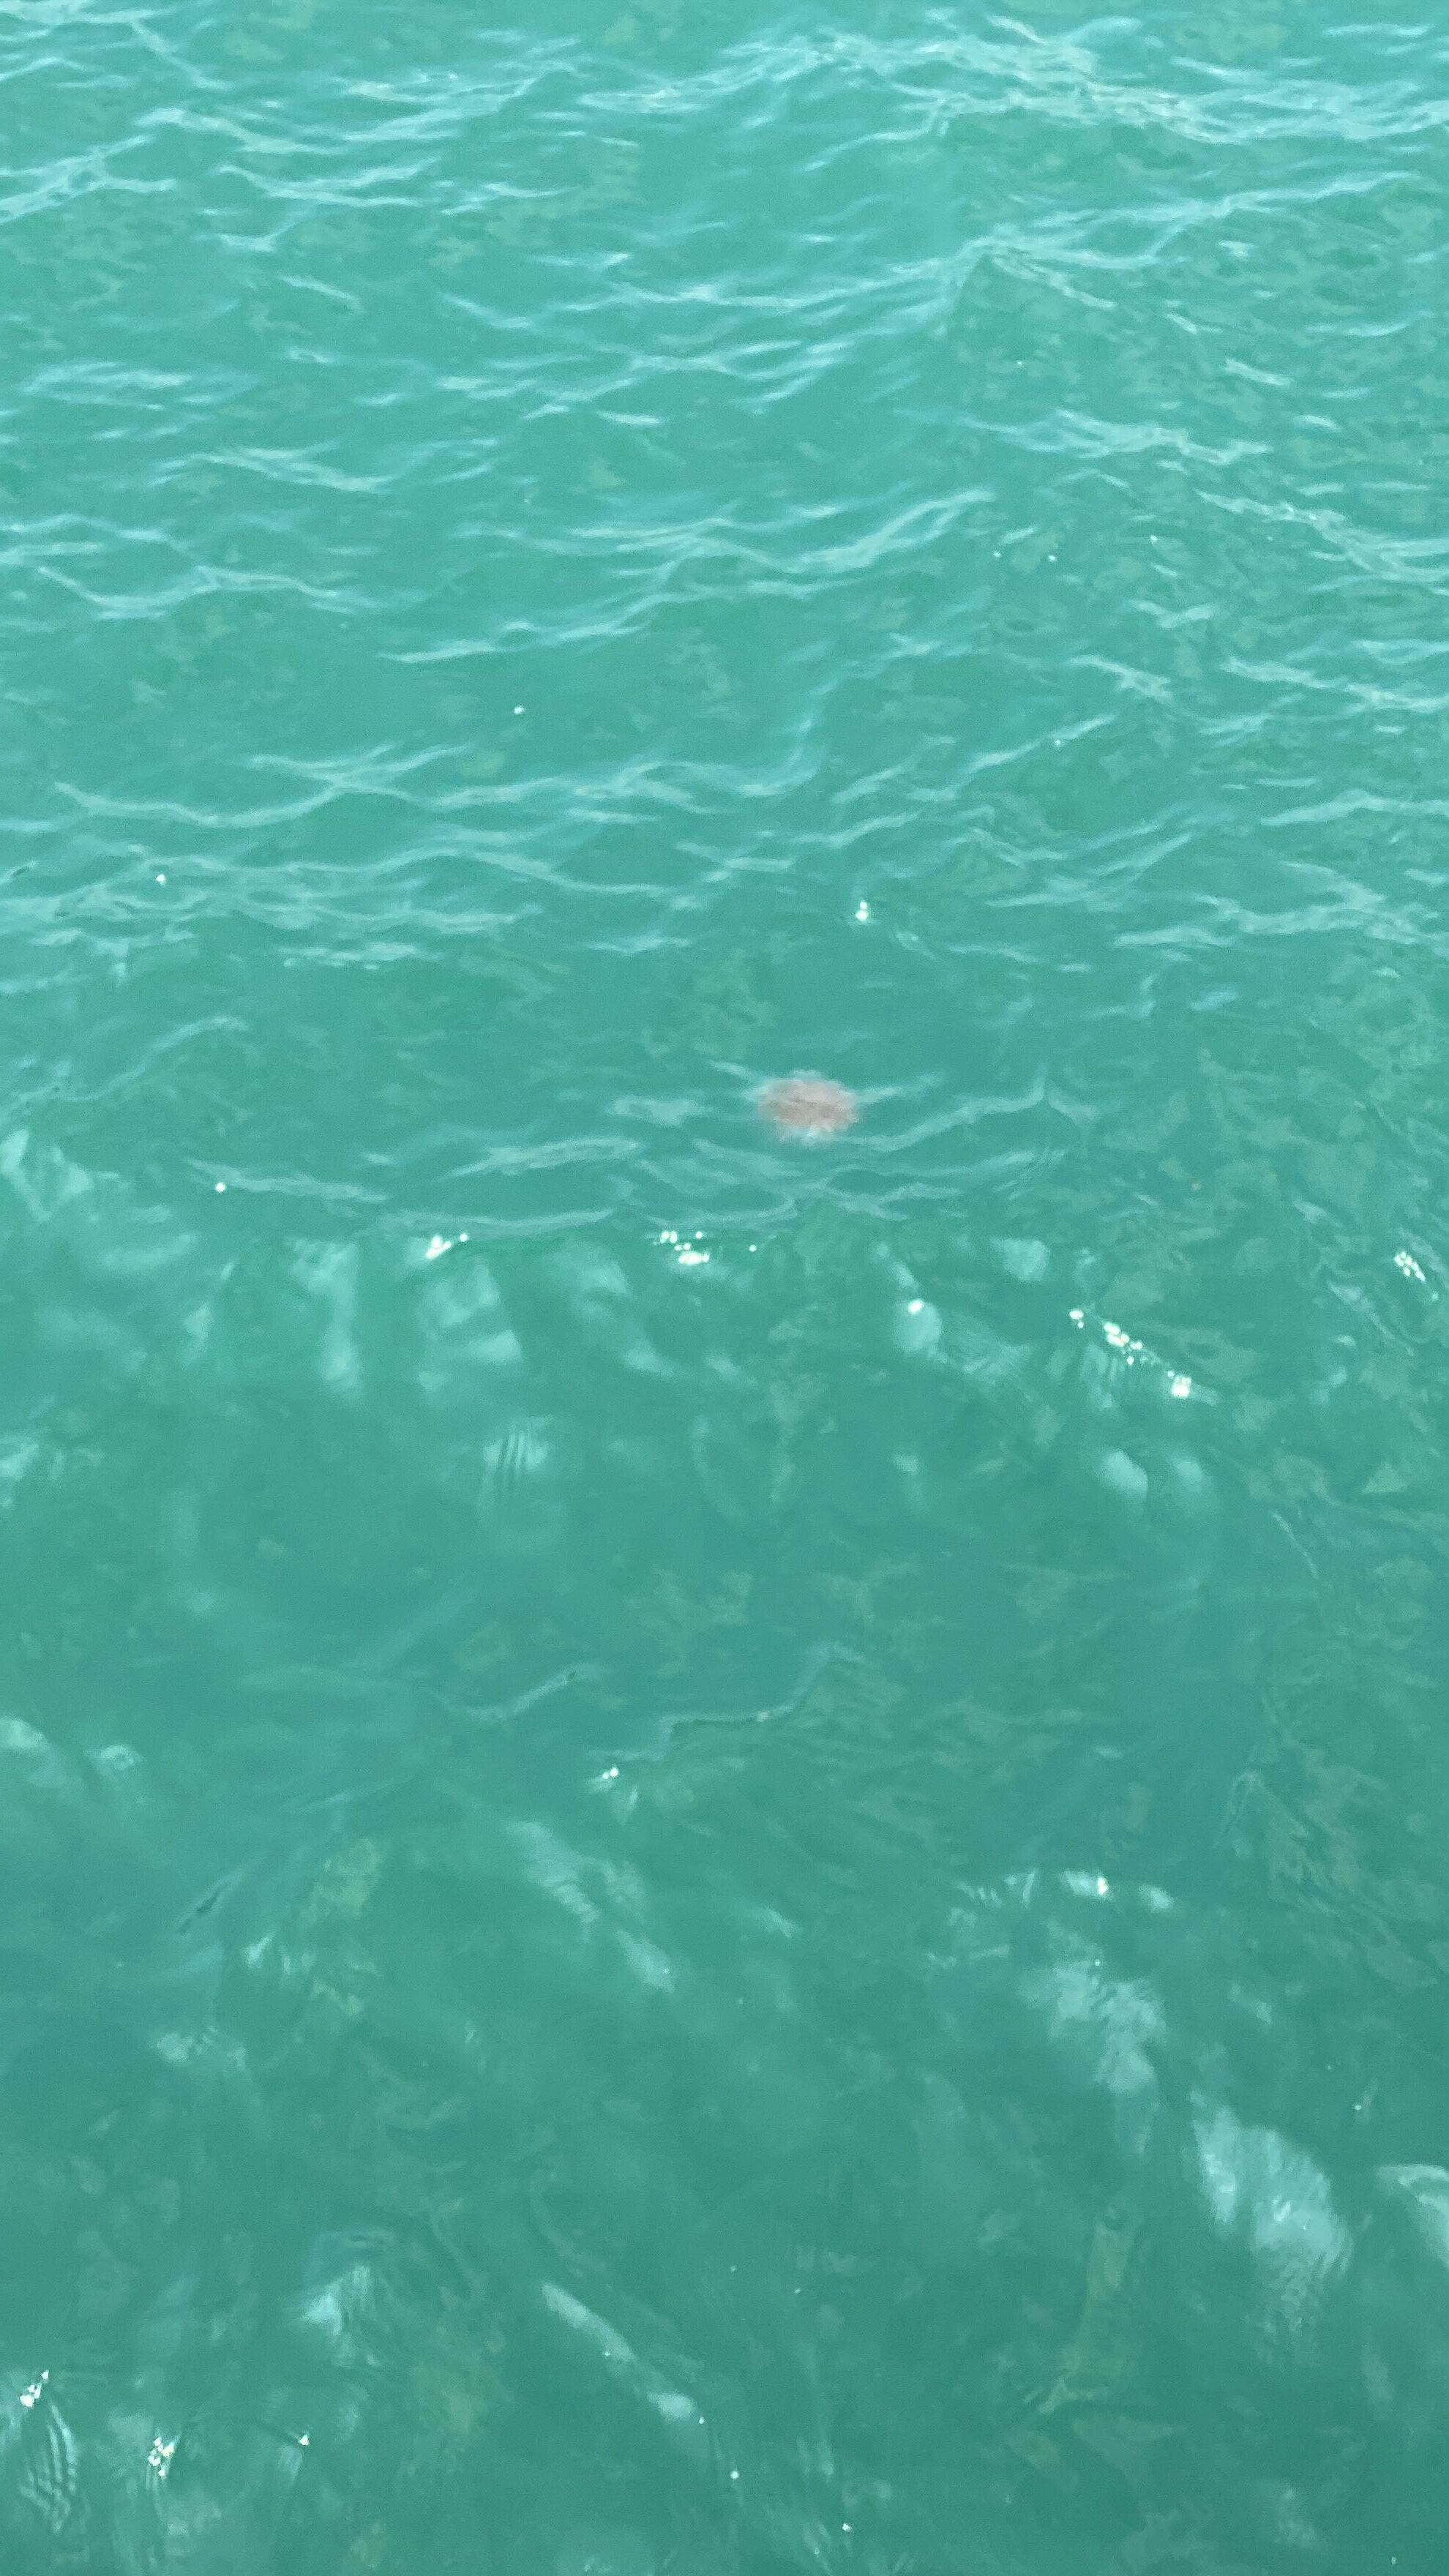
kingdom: Animalia
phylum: Cnidaria
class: Scyphozoa
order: Semaeostomeae
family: Cyaneidae
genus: Cyanea
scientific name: Cyanea nozakii
